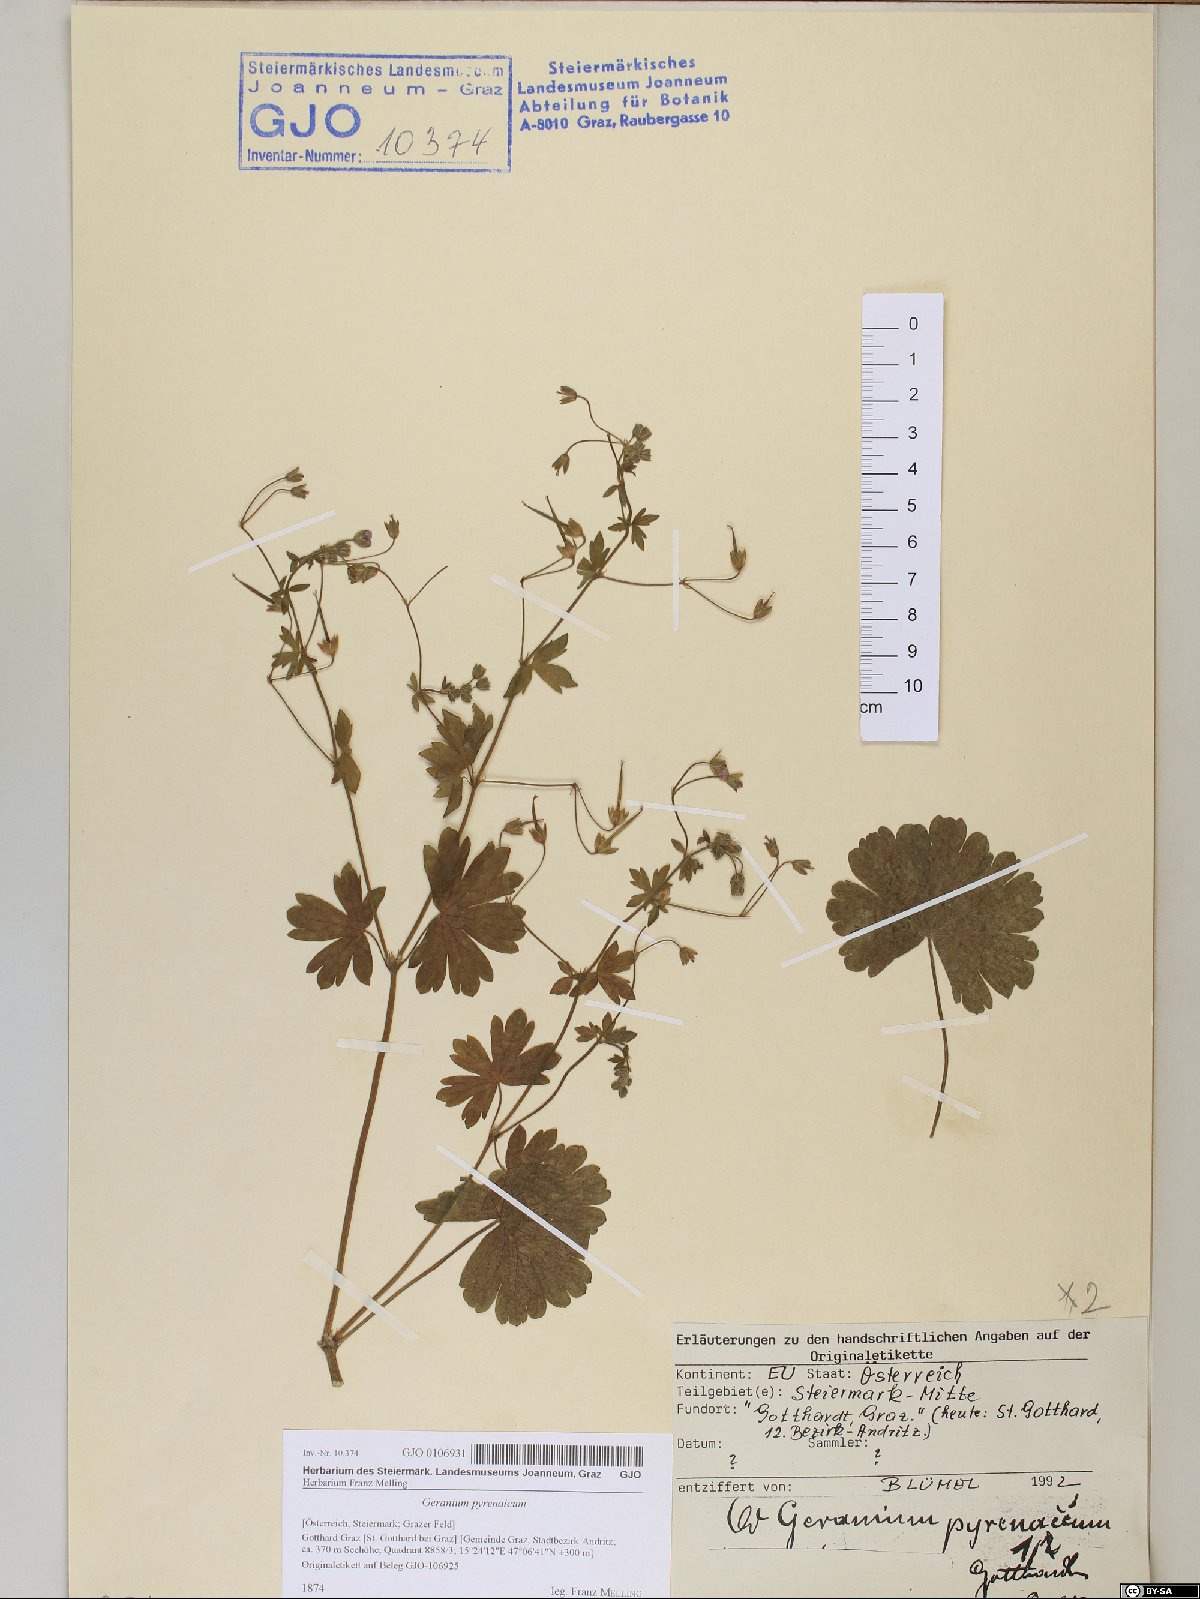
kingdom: Plantae
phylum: Tracheophyta
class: Magnoliopsida
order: Geraniales
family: Geraniaceae
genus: Geranium
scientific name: Geranium pyrenaicum
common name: Hedgerow crane's-bill
